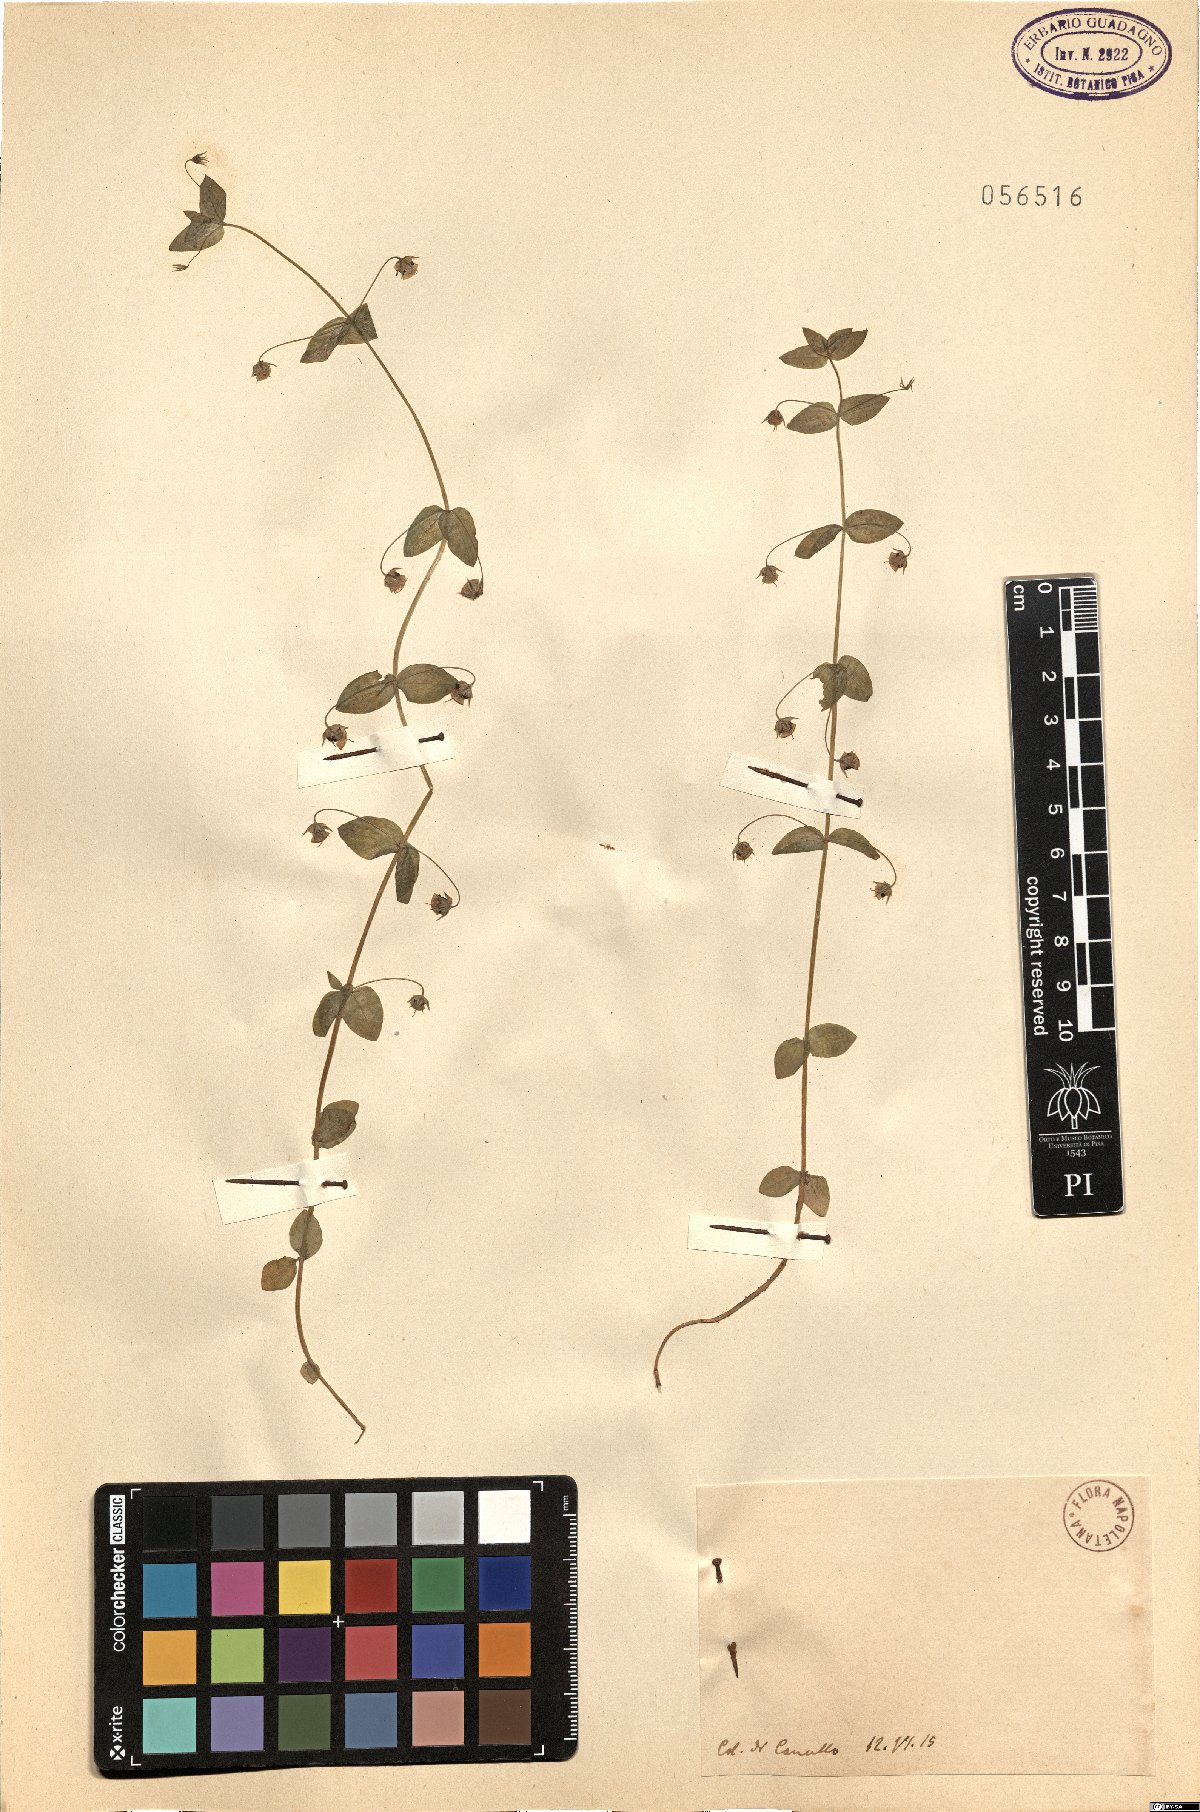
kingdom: Plantae
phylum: Tracheophyta
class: Magnoliopsida
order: Ericales
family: Primulaceae
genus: Lysimachia
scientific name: Lysimachia Anagallis spec
